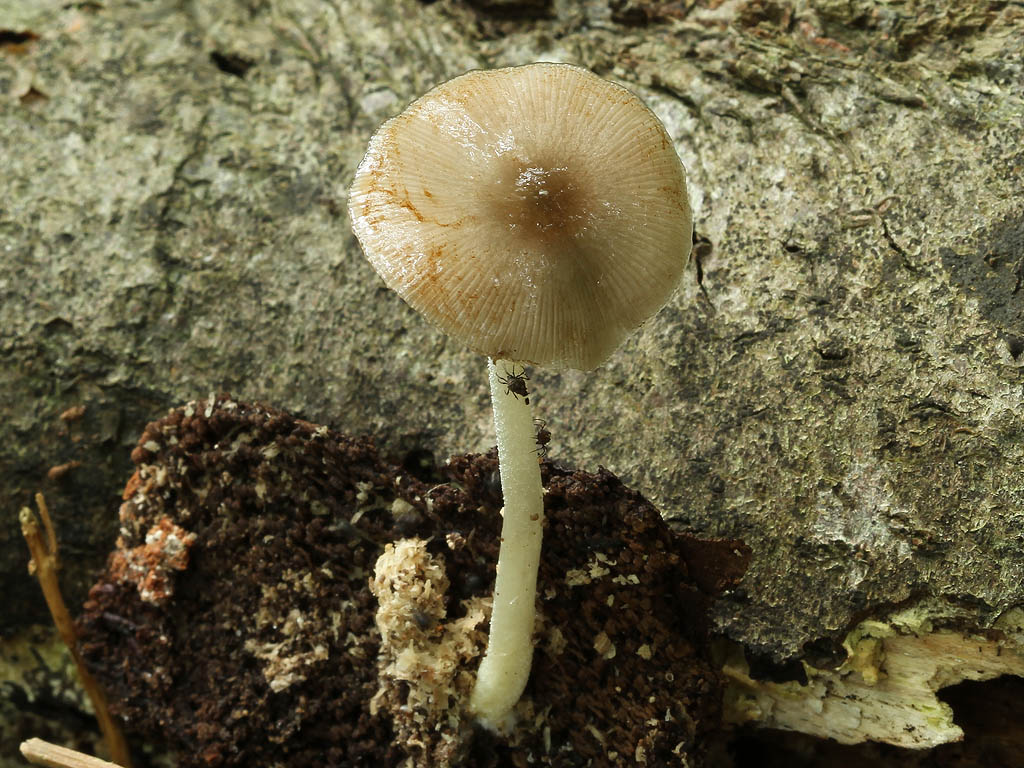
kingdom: Fungi
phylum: Basidiomycota
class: Agaricomycetes
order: Agaricales
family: Bolbitiaceae
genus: Bolbitius
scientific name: Bolbitius reticulatus
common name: netåret gulhat
